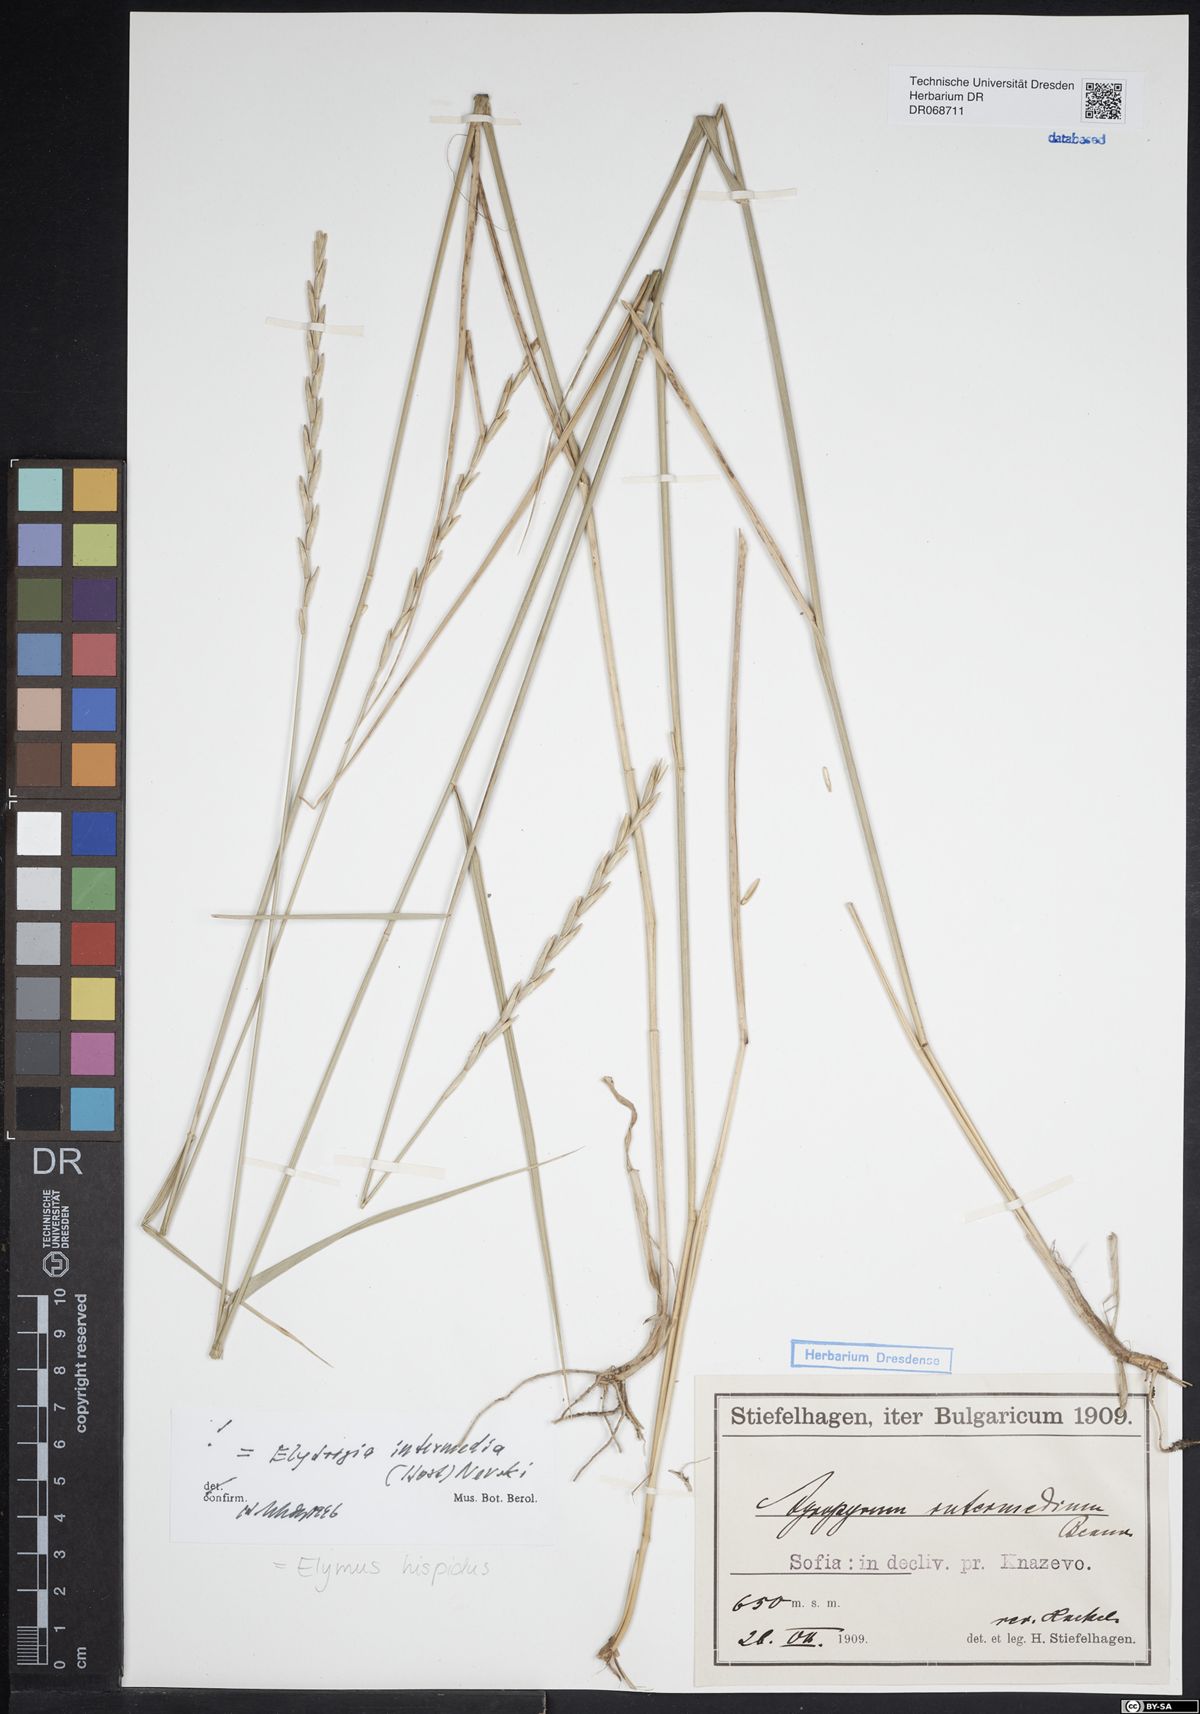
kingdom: Plantae
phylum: Tracheophyta
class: Liliopsida
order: Poales
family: Poaceae
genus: Thinopyrum
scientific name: Thinopyrum intermedium
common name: Intermediate wheatgrass
